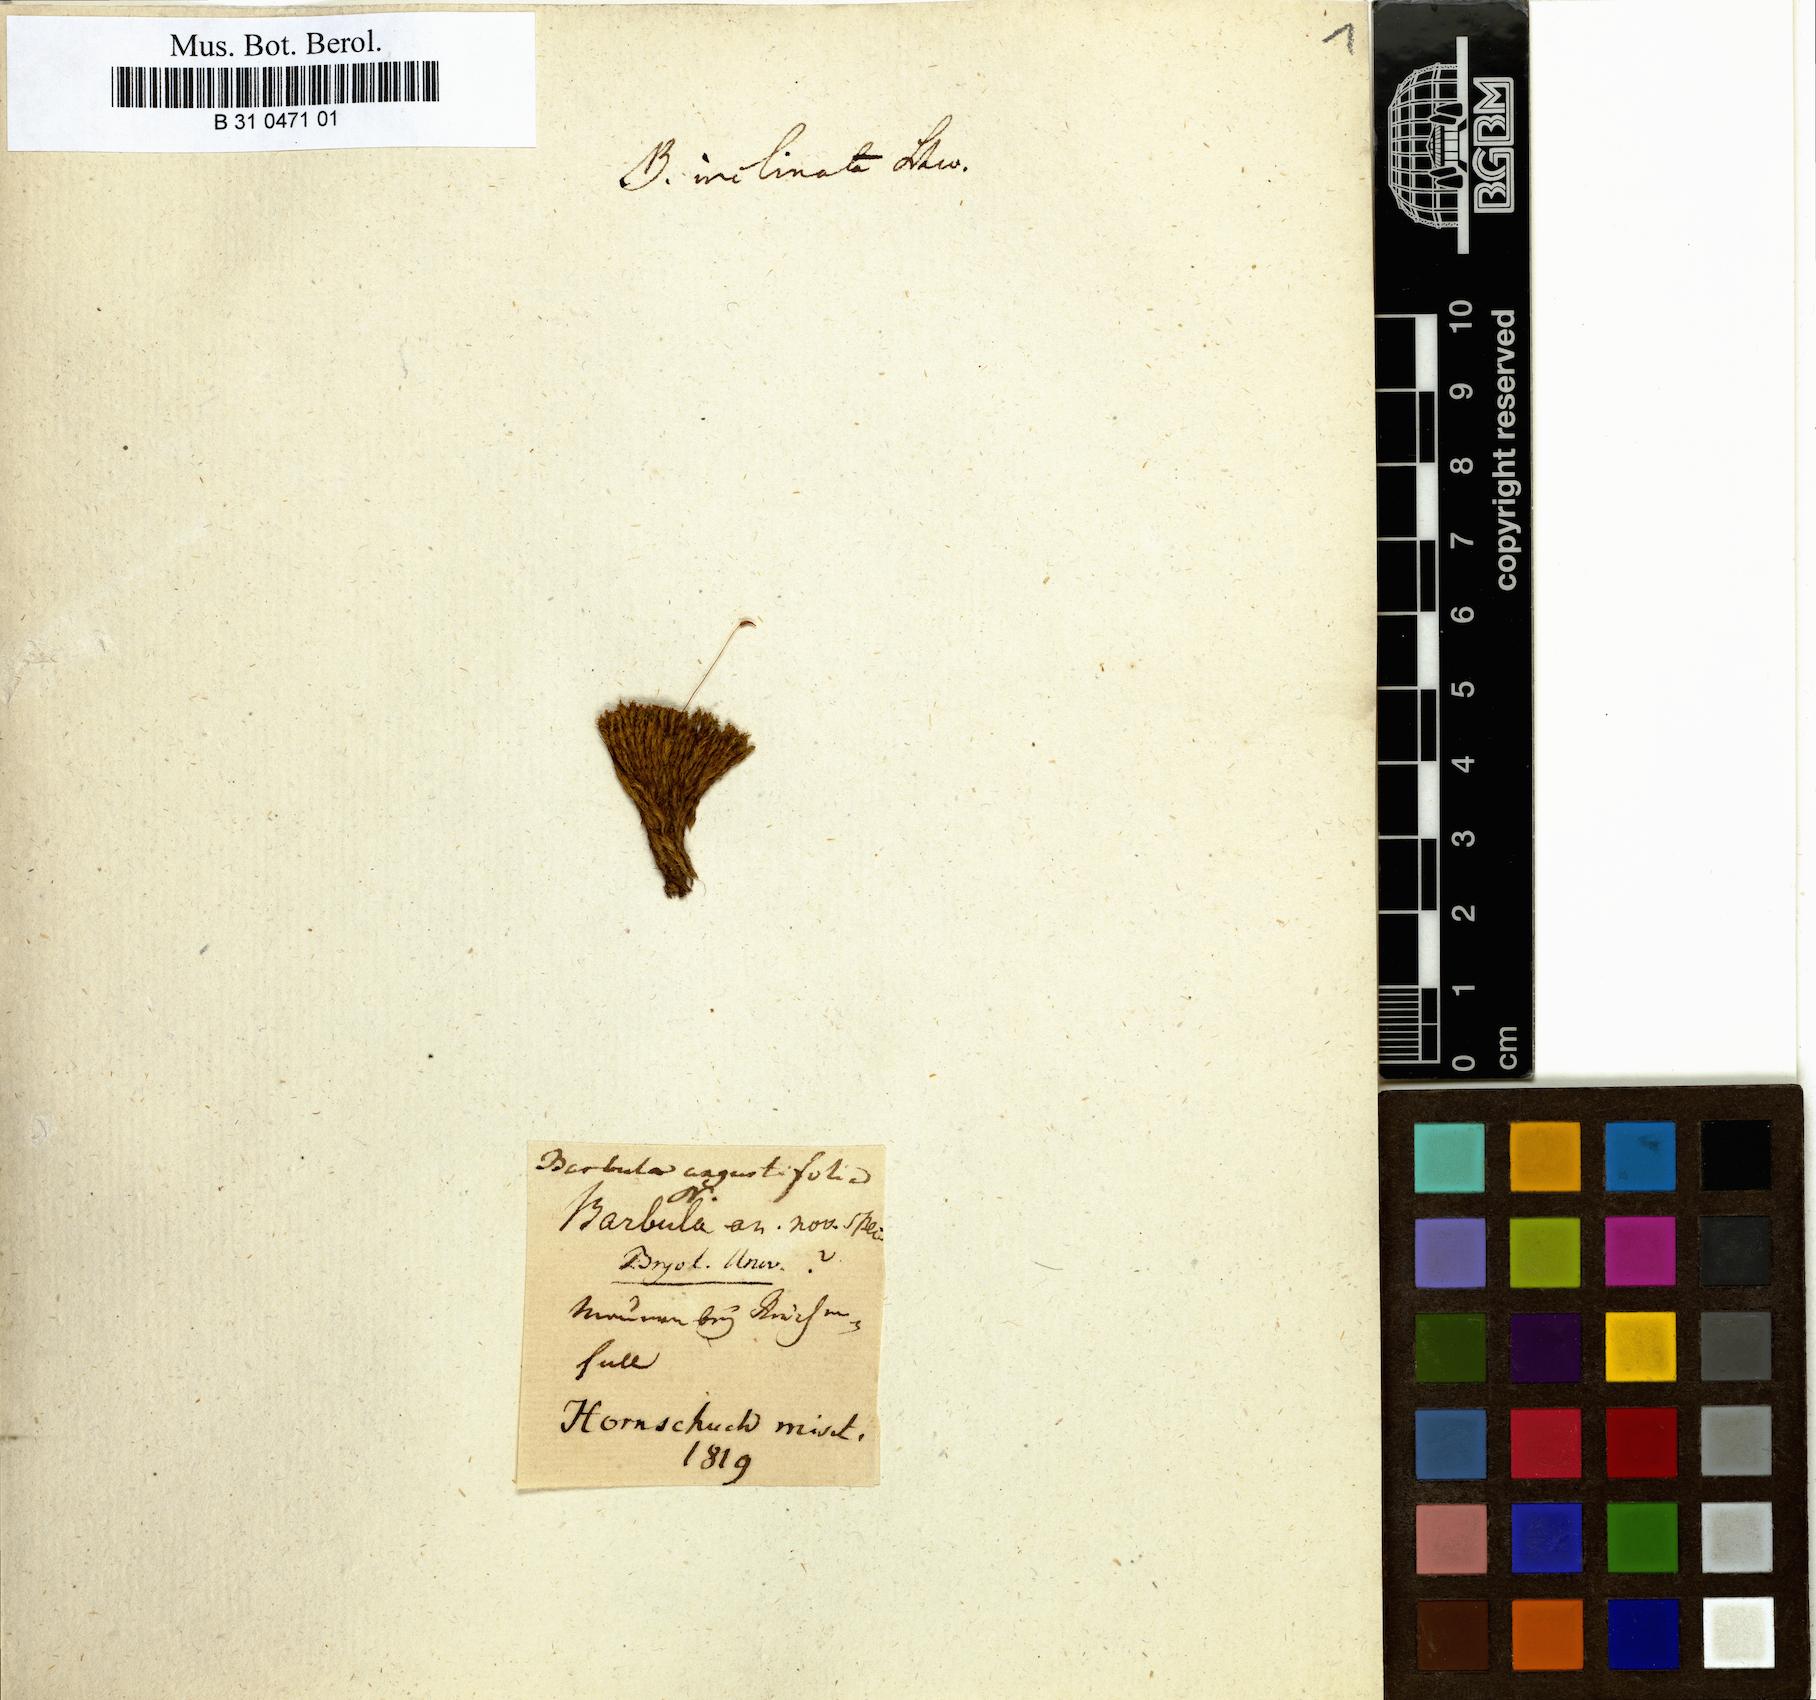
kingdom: Plantae
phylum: Bryophyta
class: Bryopsida
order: Pottiales
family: Pottiaceae
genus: Tortella
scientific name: Tortella inclinata
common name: Inclined twisted moss
